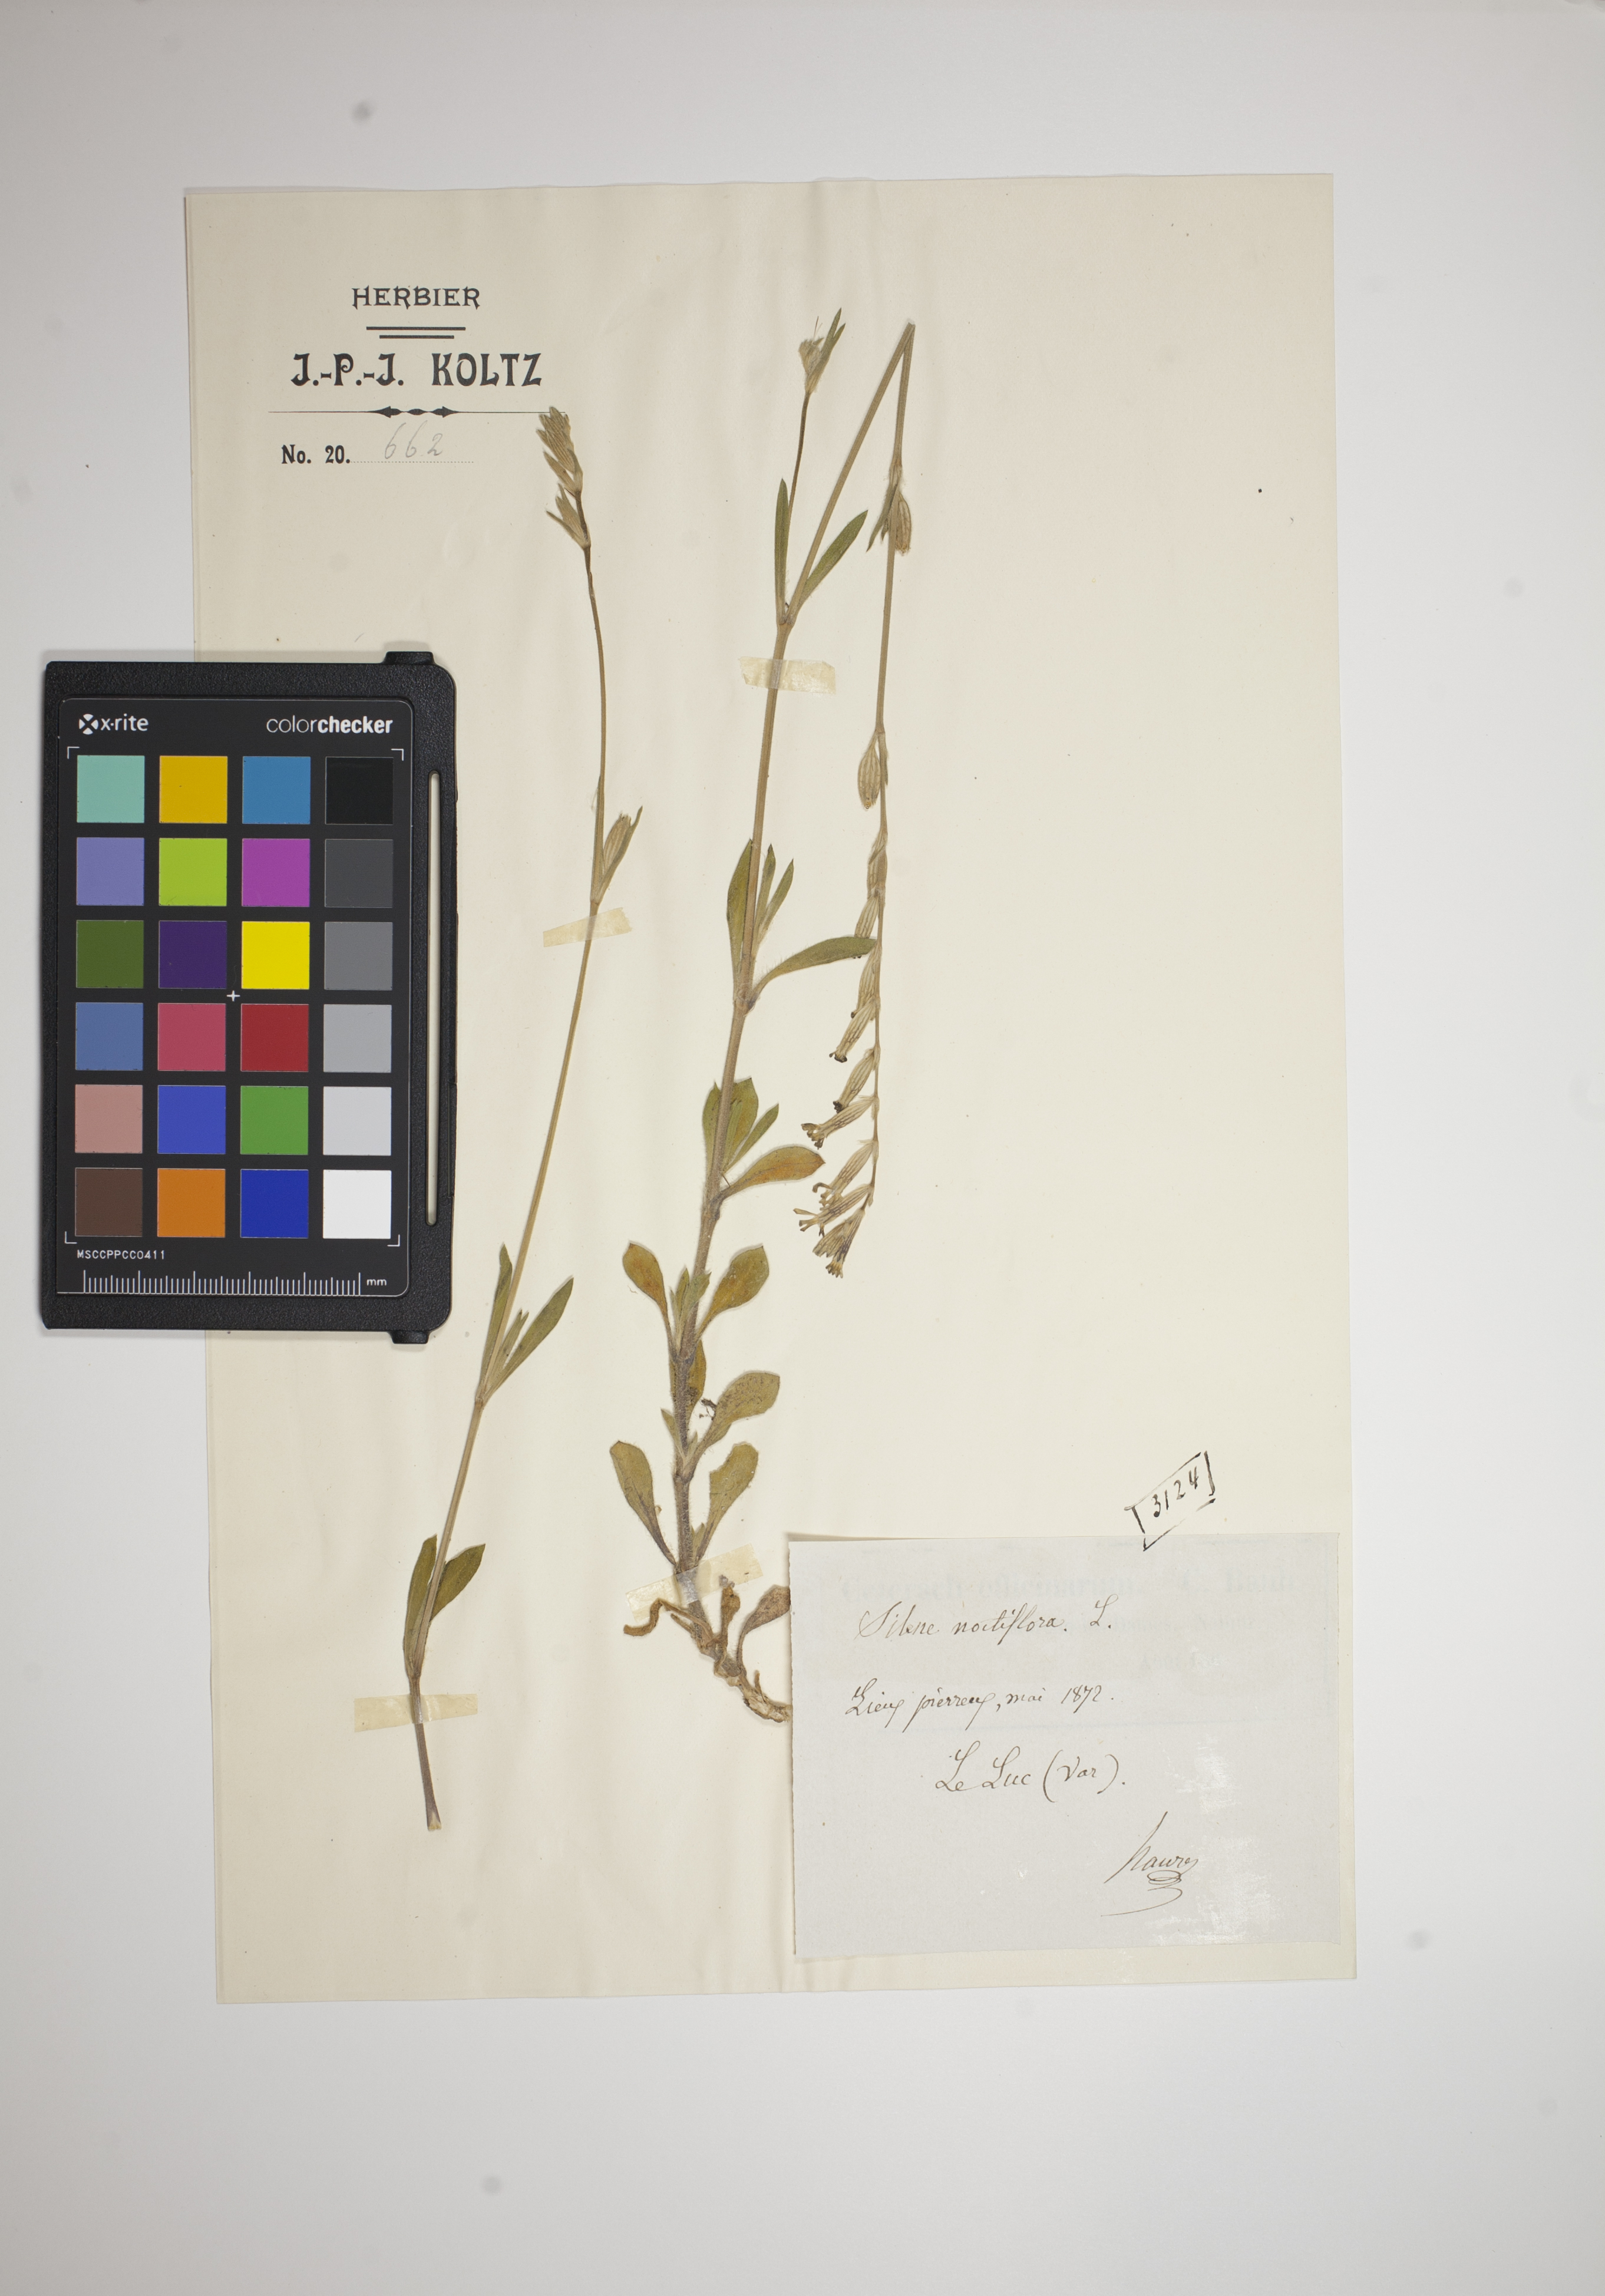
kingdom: Plantae
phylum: Tracheophyta
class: Magnoliopsida
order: Caryophyllales
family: Caryophyllaceae
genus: Silene
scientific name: Silene noctiflora
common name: Night-flowering catchfly
